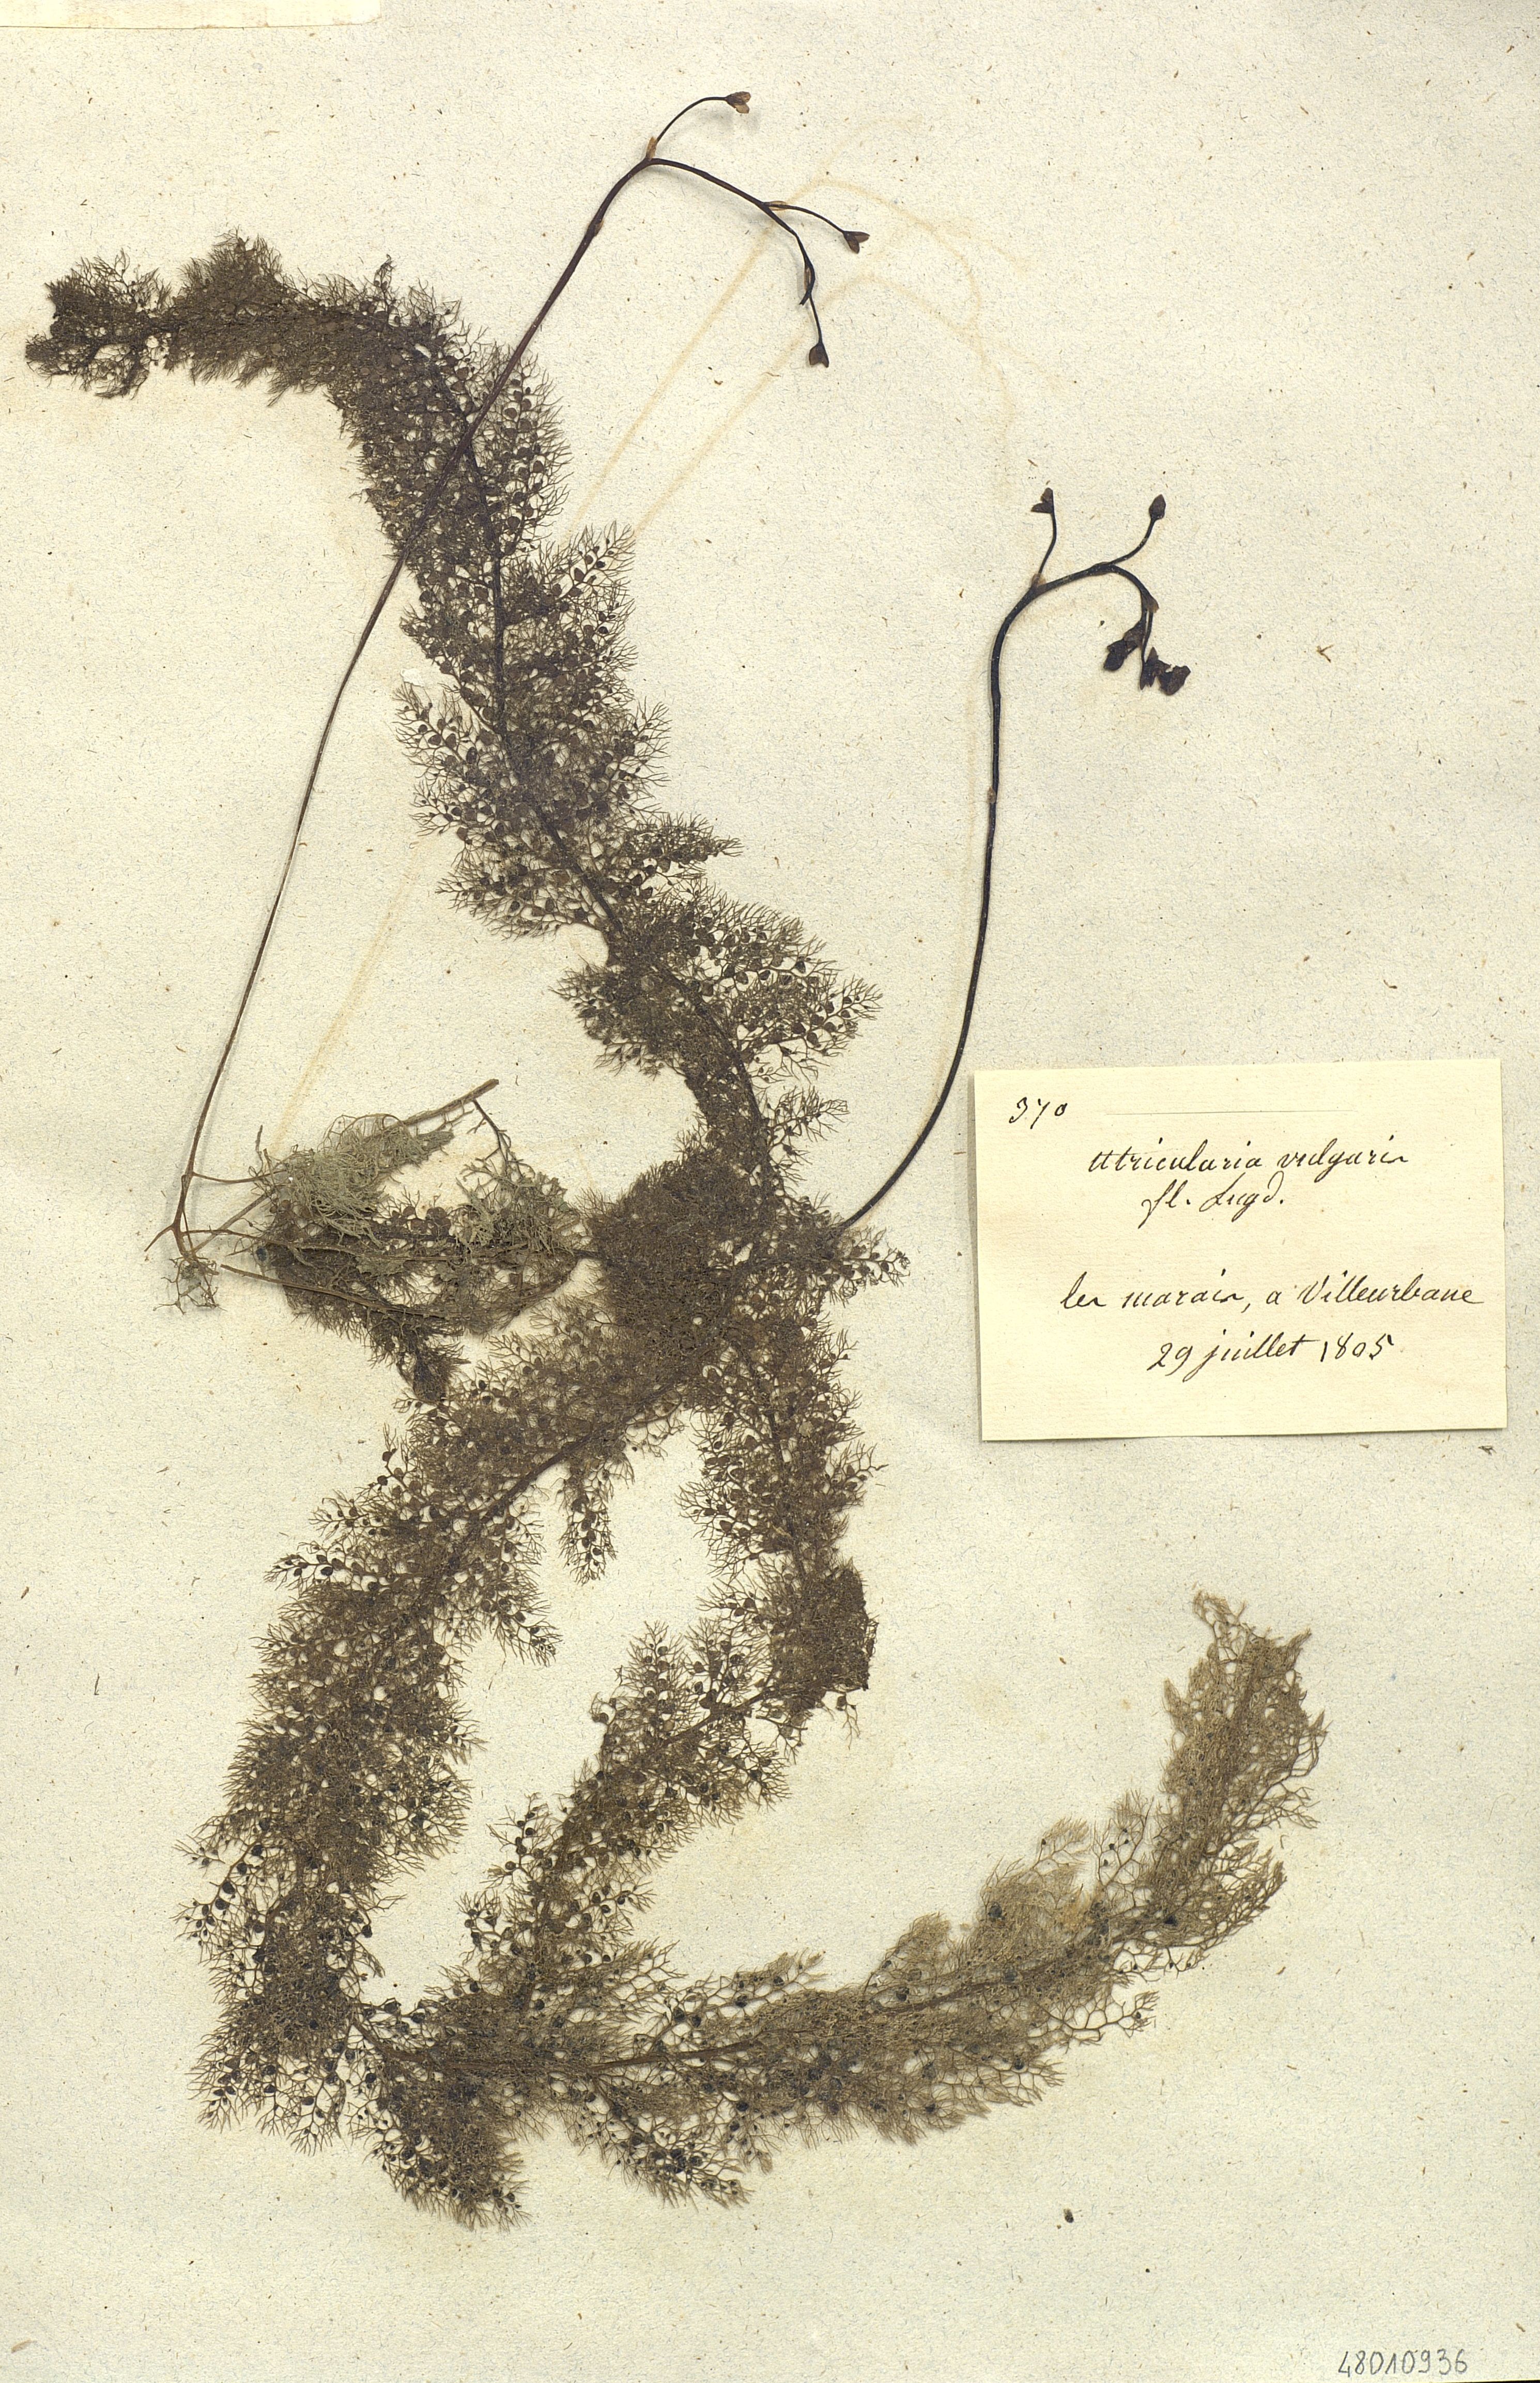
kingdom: Plantae
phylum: Tracheophyta
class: Magnoliopsida
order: Lamiales
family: Lentibulariaceae
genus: Utricularia
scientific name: Utricularia vulgaris
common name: Greater bladderwort
